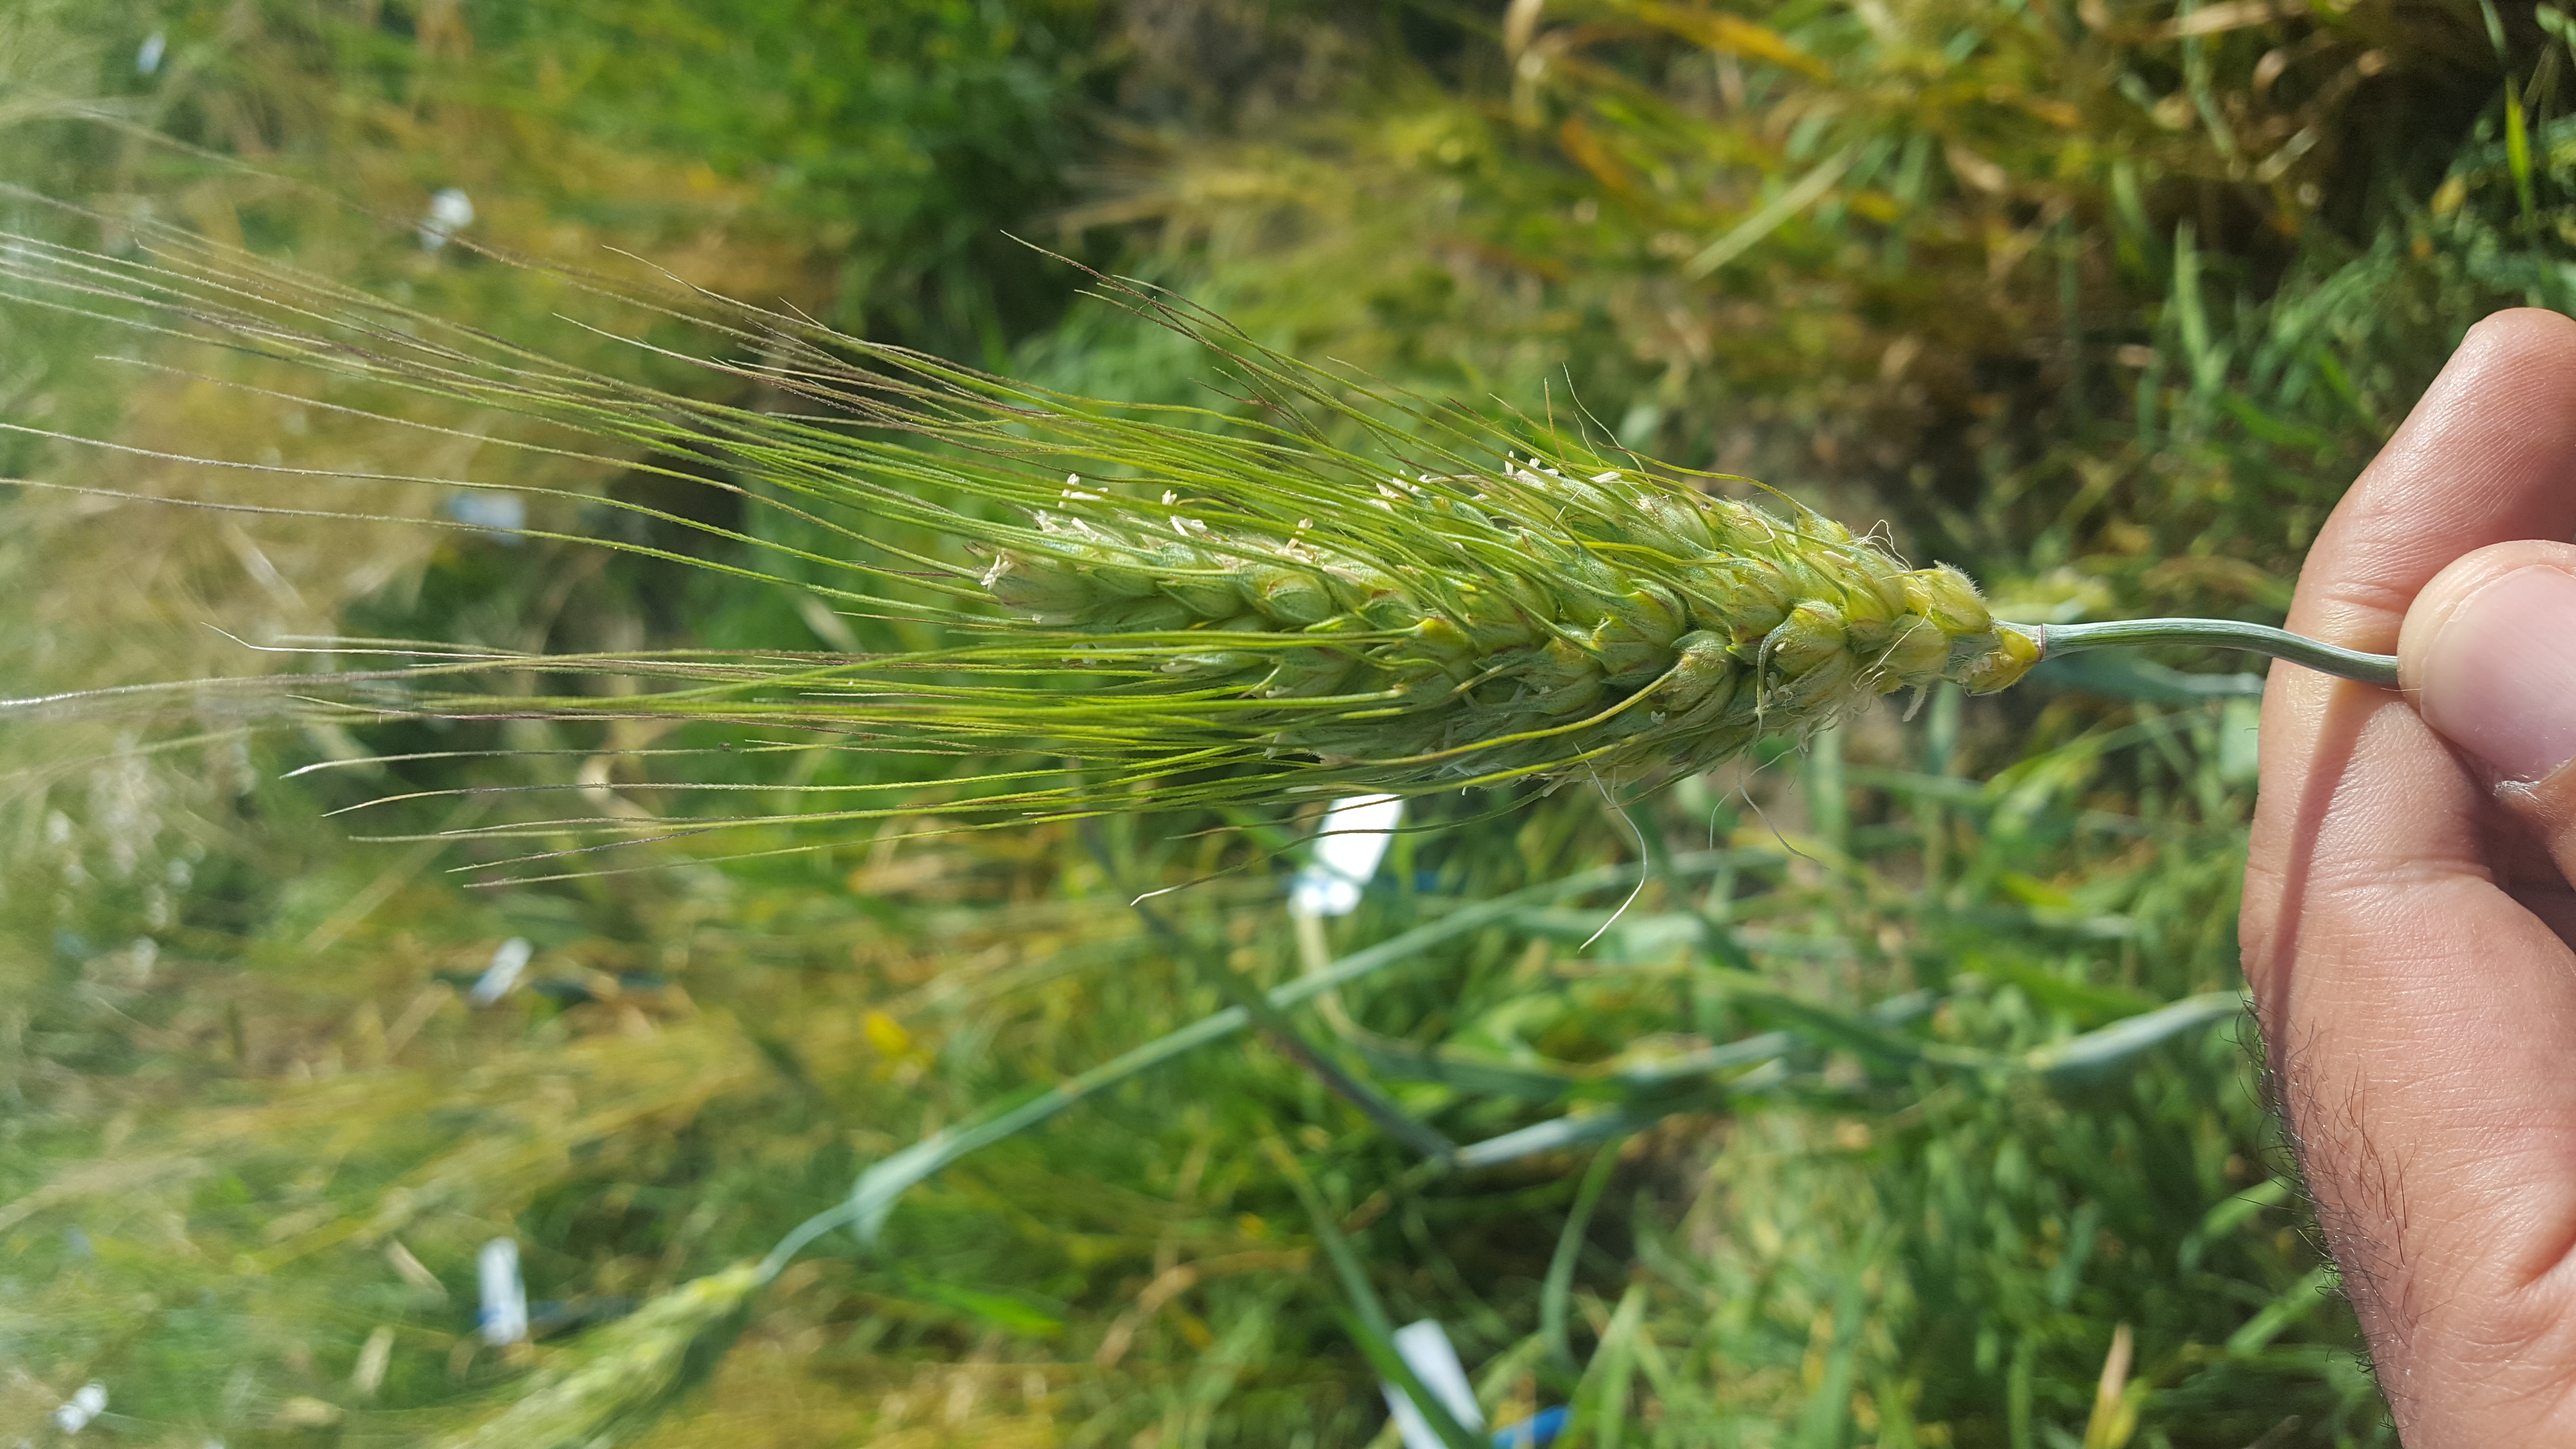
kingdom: Plantae
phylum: Tracheophyta
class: Liliopsida
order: Poales
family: Poaceae
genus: Triticum
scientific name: Triticum turgidum
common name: Rivet wheat
